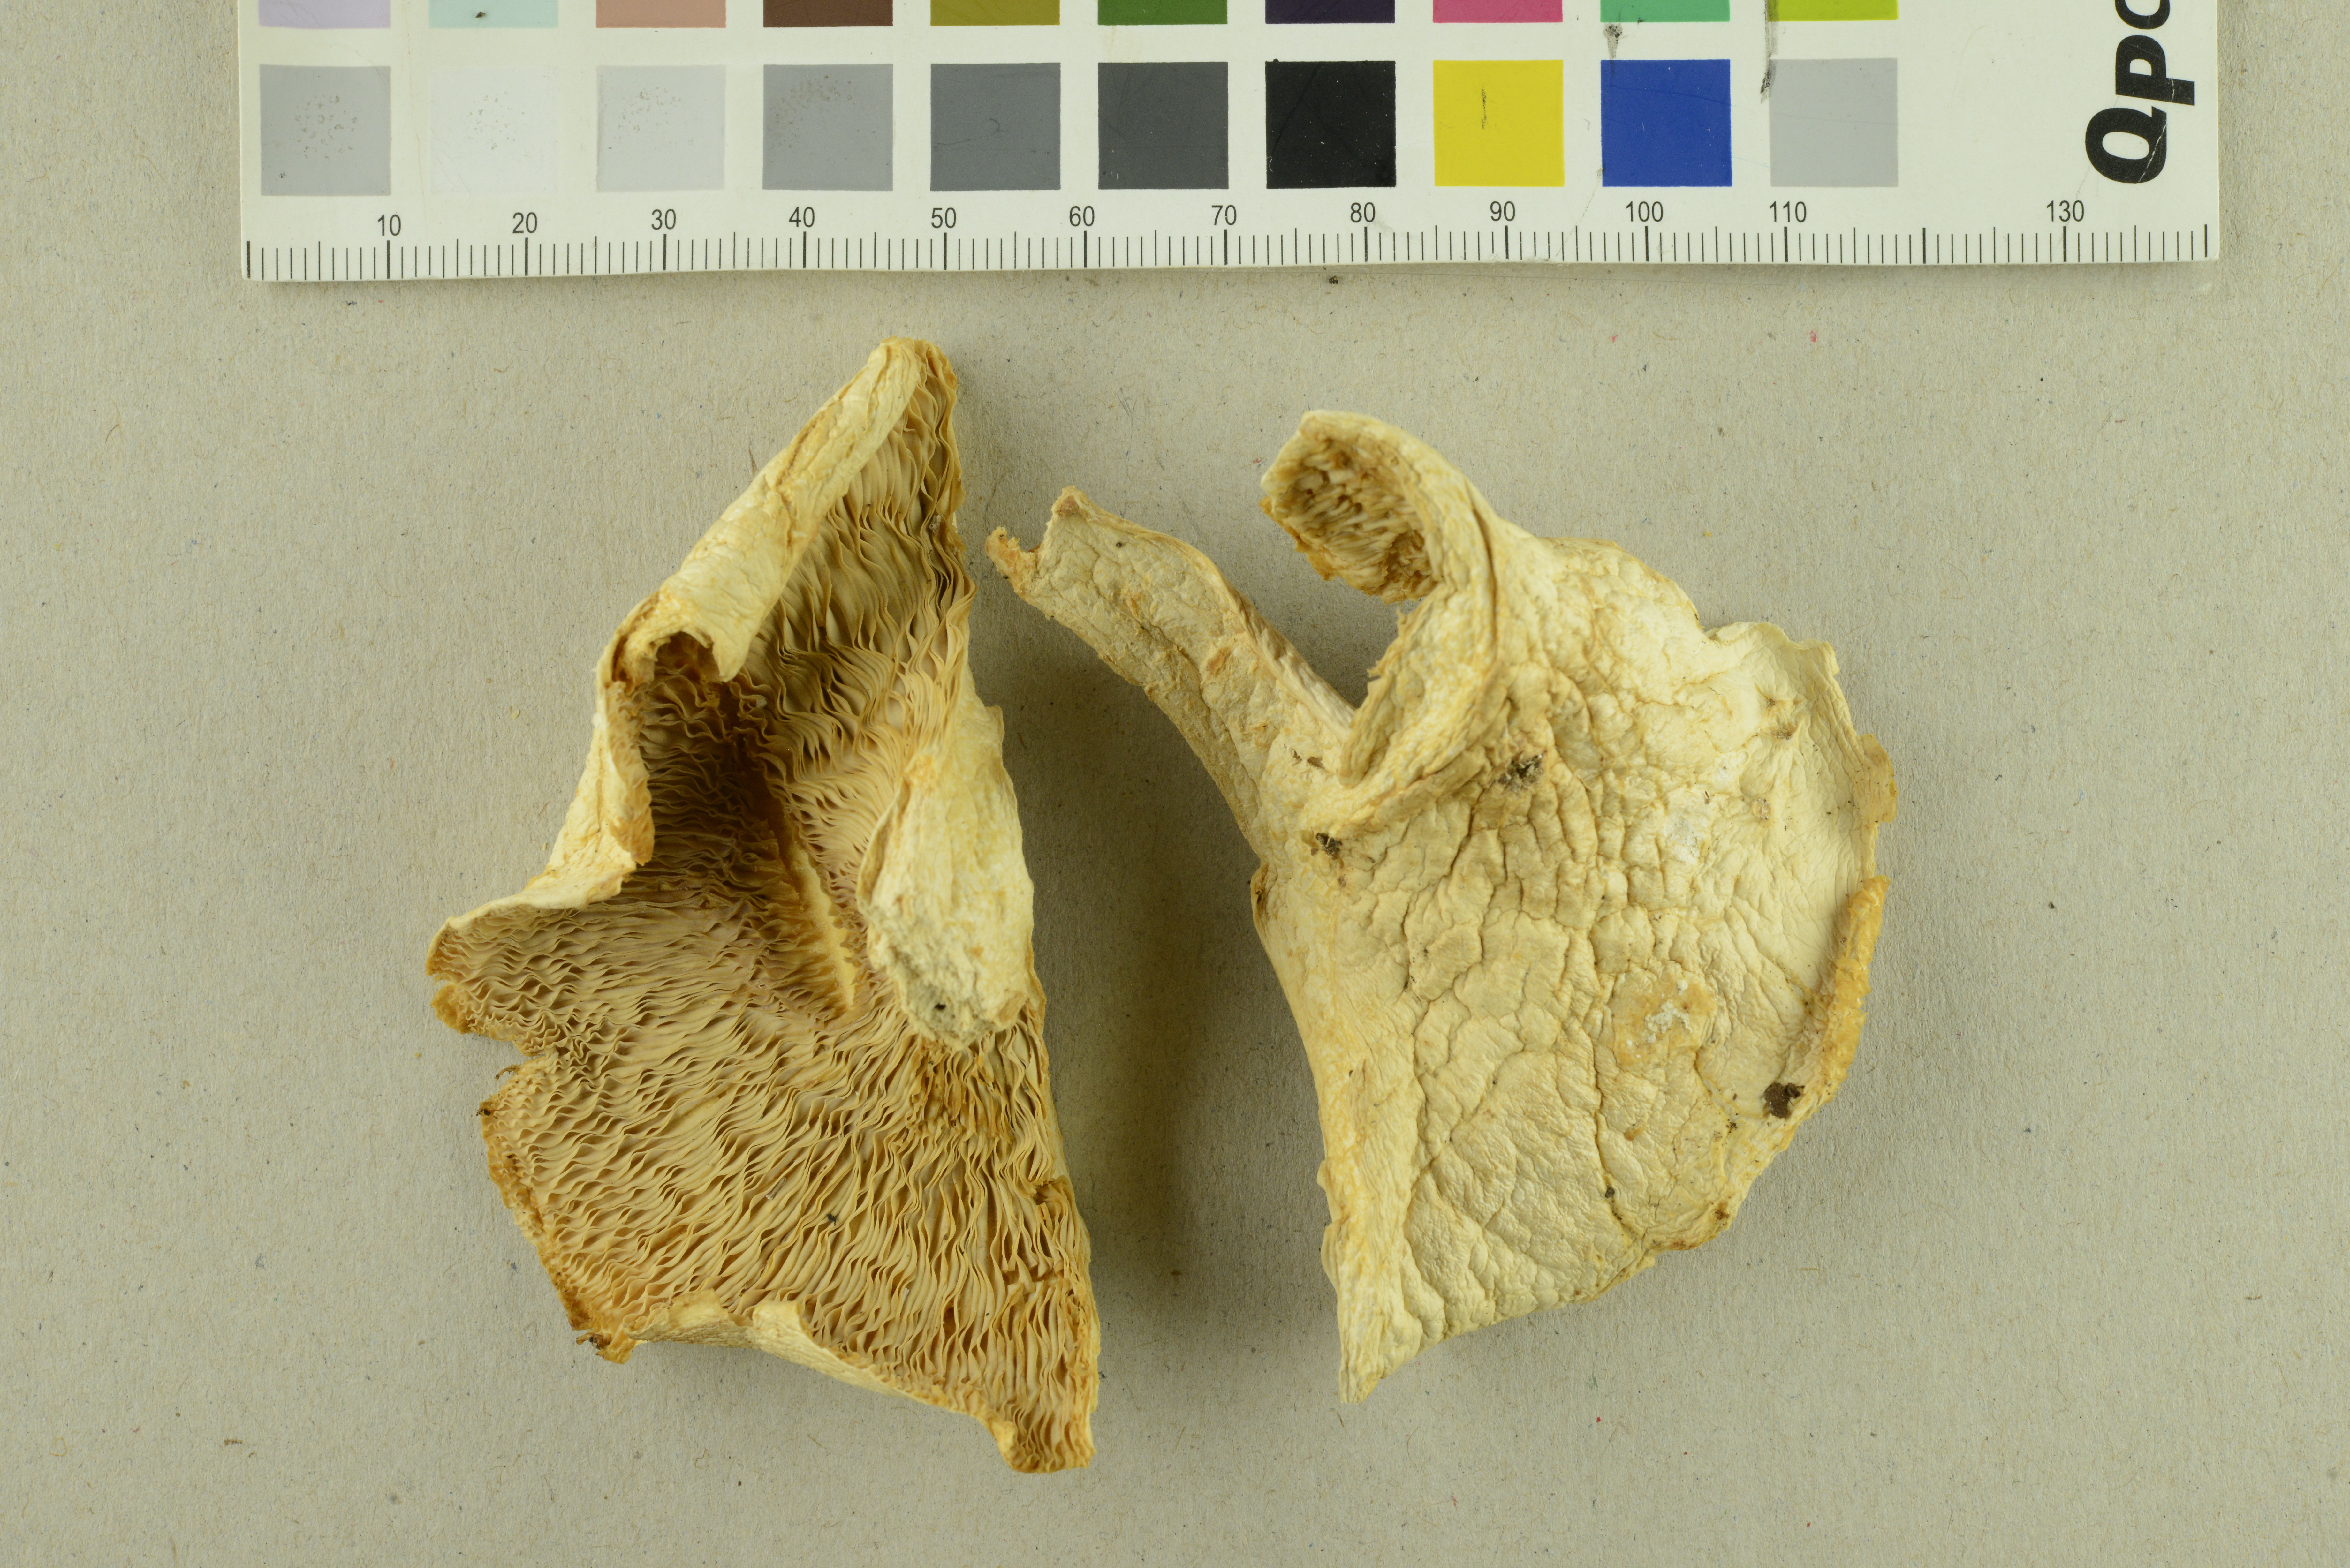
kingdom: Fungi
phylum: Basidiomycota
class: Agaricomycetes
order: Russulales
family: Russulaceae
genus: Lactifluus
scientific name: Lactifluus glaucescens
